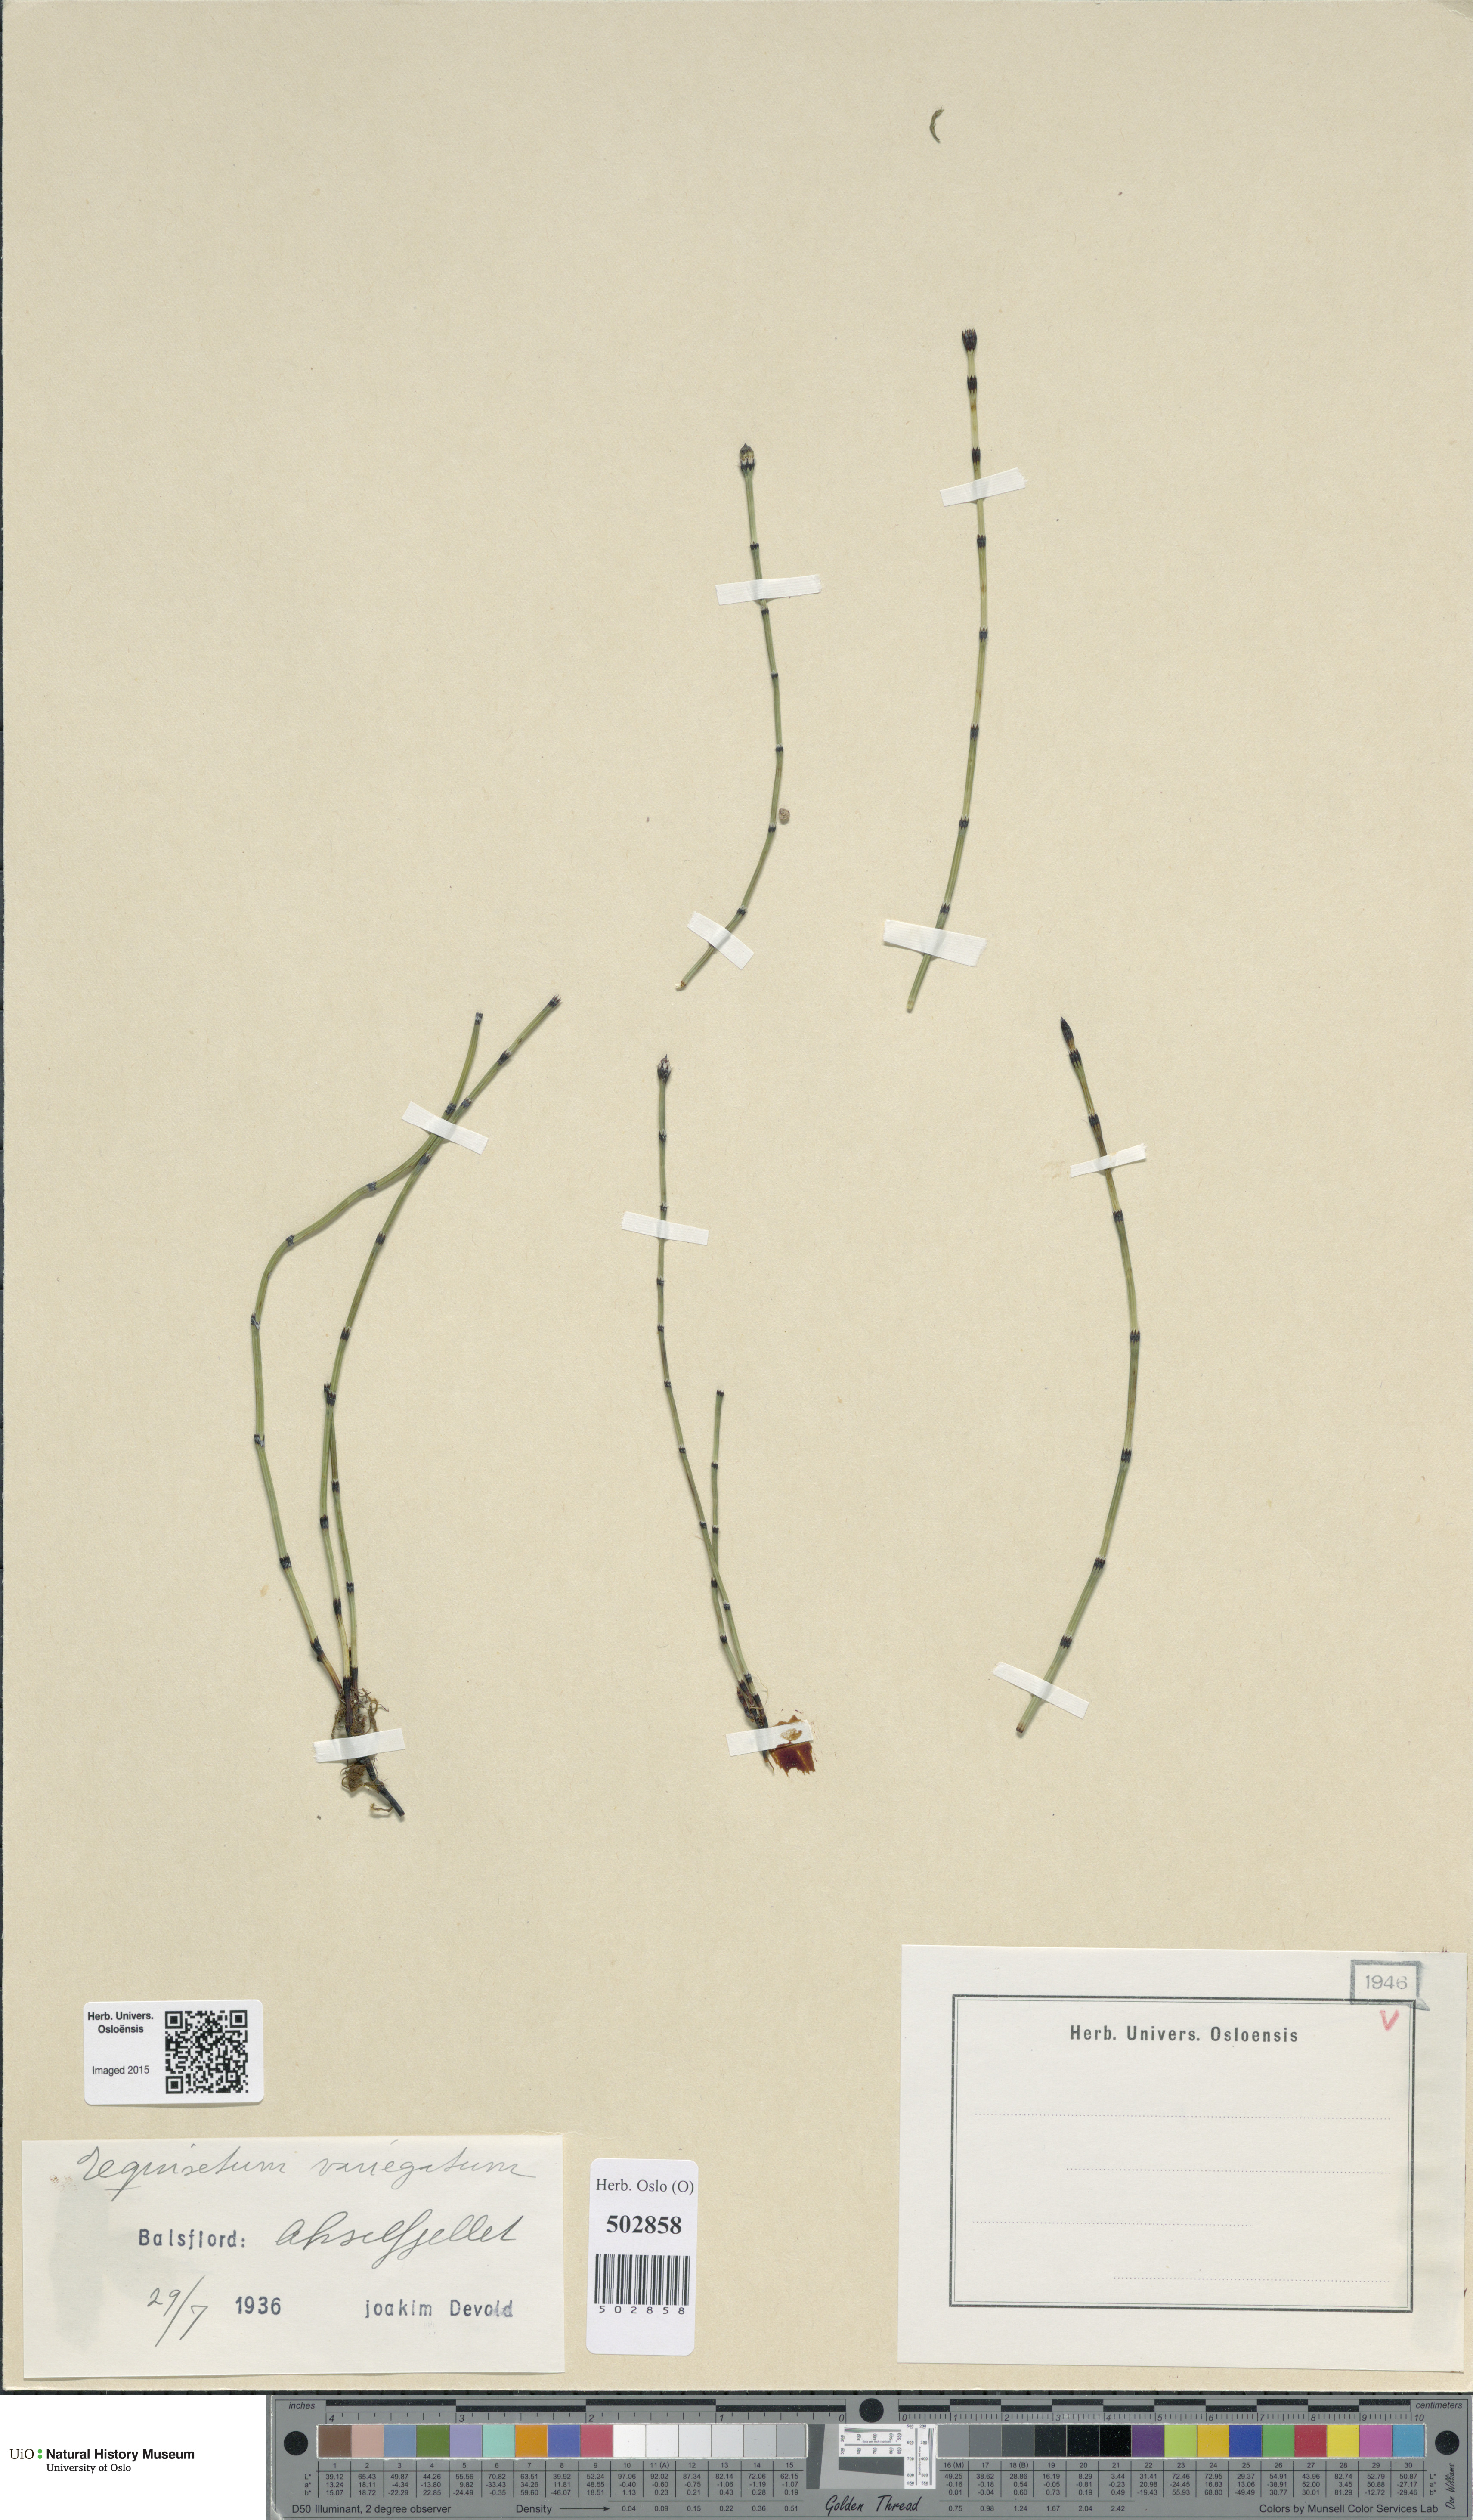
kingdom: Plantae
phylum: Tracheophyta
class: Polypodiopsida
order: Equisetales
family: Equisetaceae
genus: Equisetum
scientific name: Equisetum variegatum
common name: Variegated horsetail
